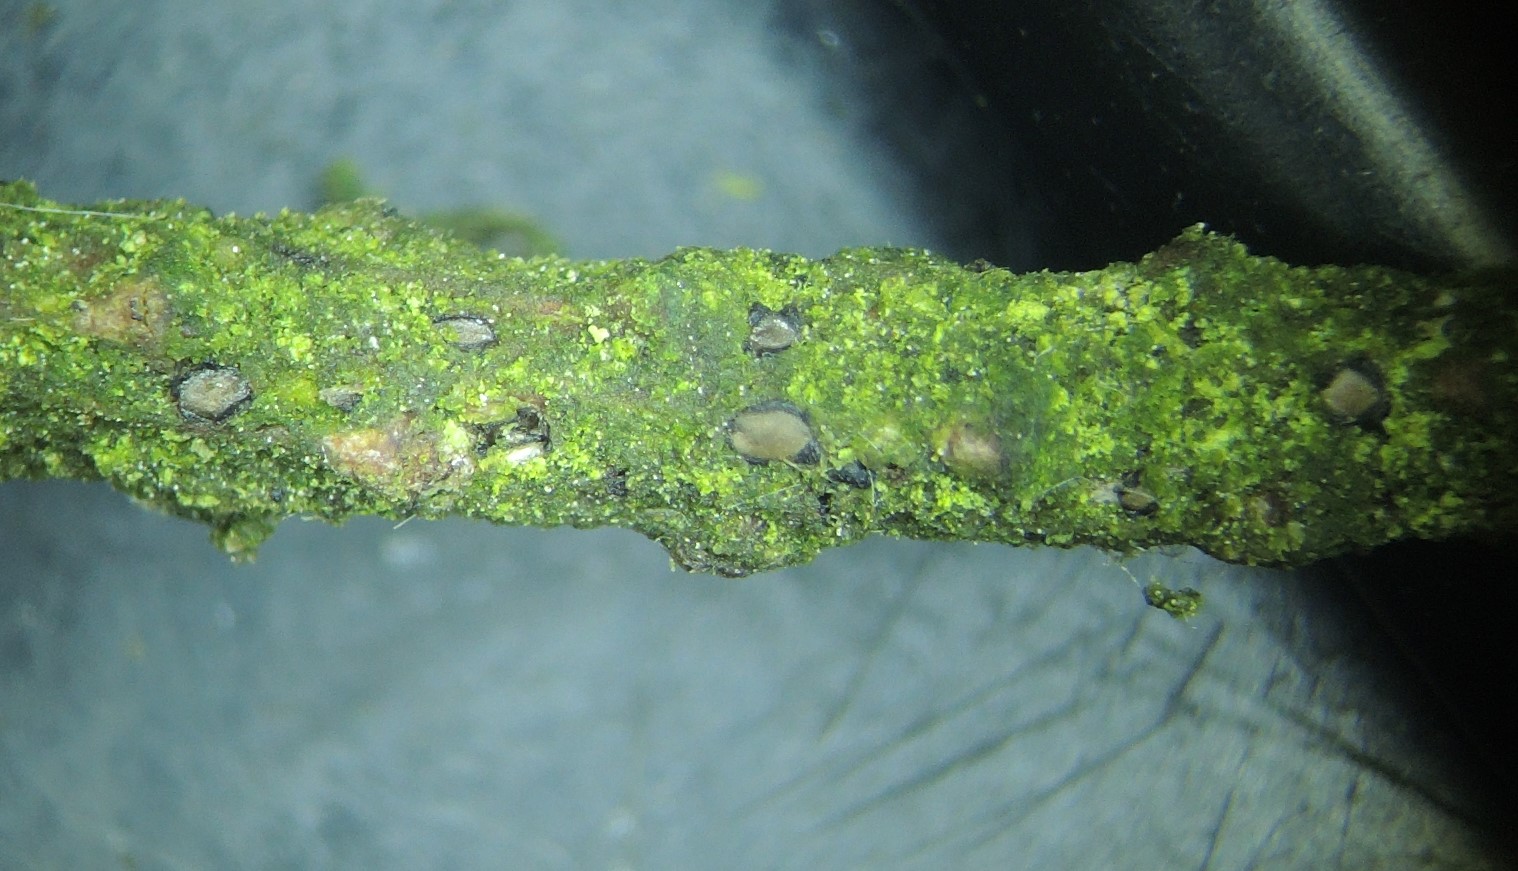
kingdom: Fungi
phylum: Ascomycota
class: Leotiomycetes
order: Rhytismatales
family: Rhytismataceae
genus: Therrya
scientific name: Therrya pini
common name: fyrre-tandskive
